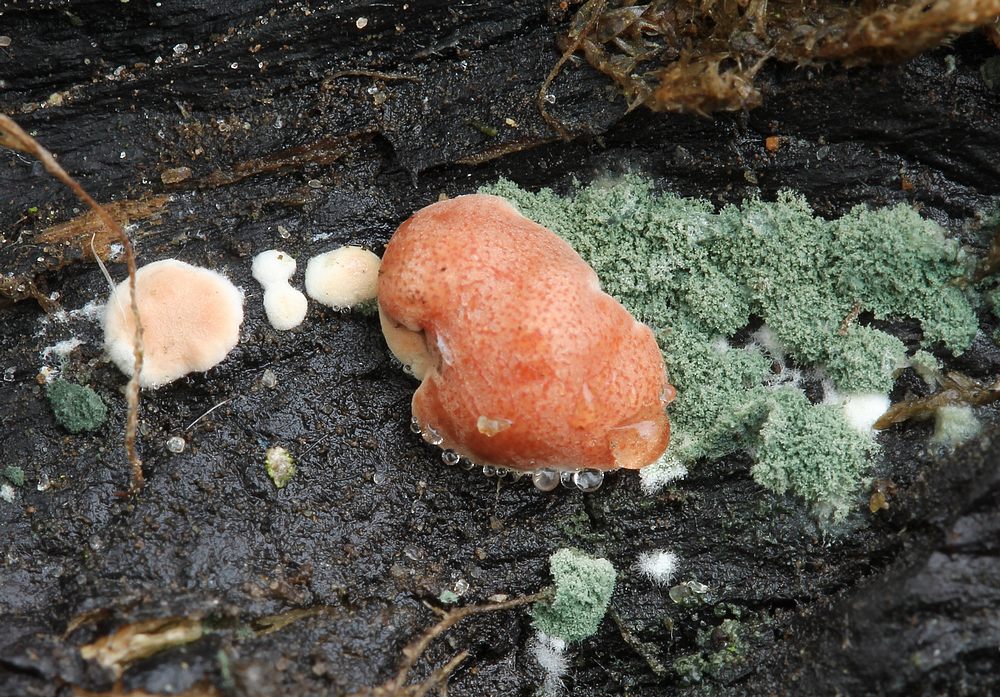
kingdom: Fungi
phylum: Ascomycota
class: Sordariomycetes
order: Hypocreales
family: Hypocreaceae
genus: Trichoderma
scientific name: Trichoderma europaeum
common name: rosabrun kødkerne
